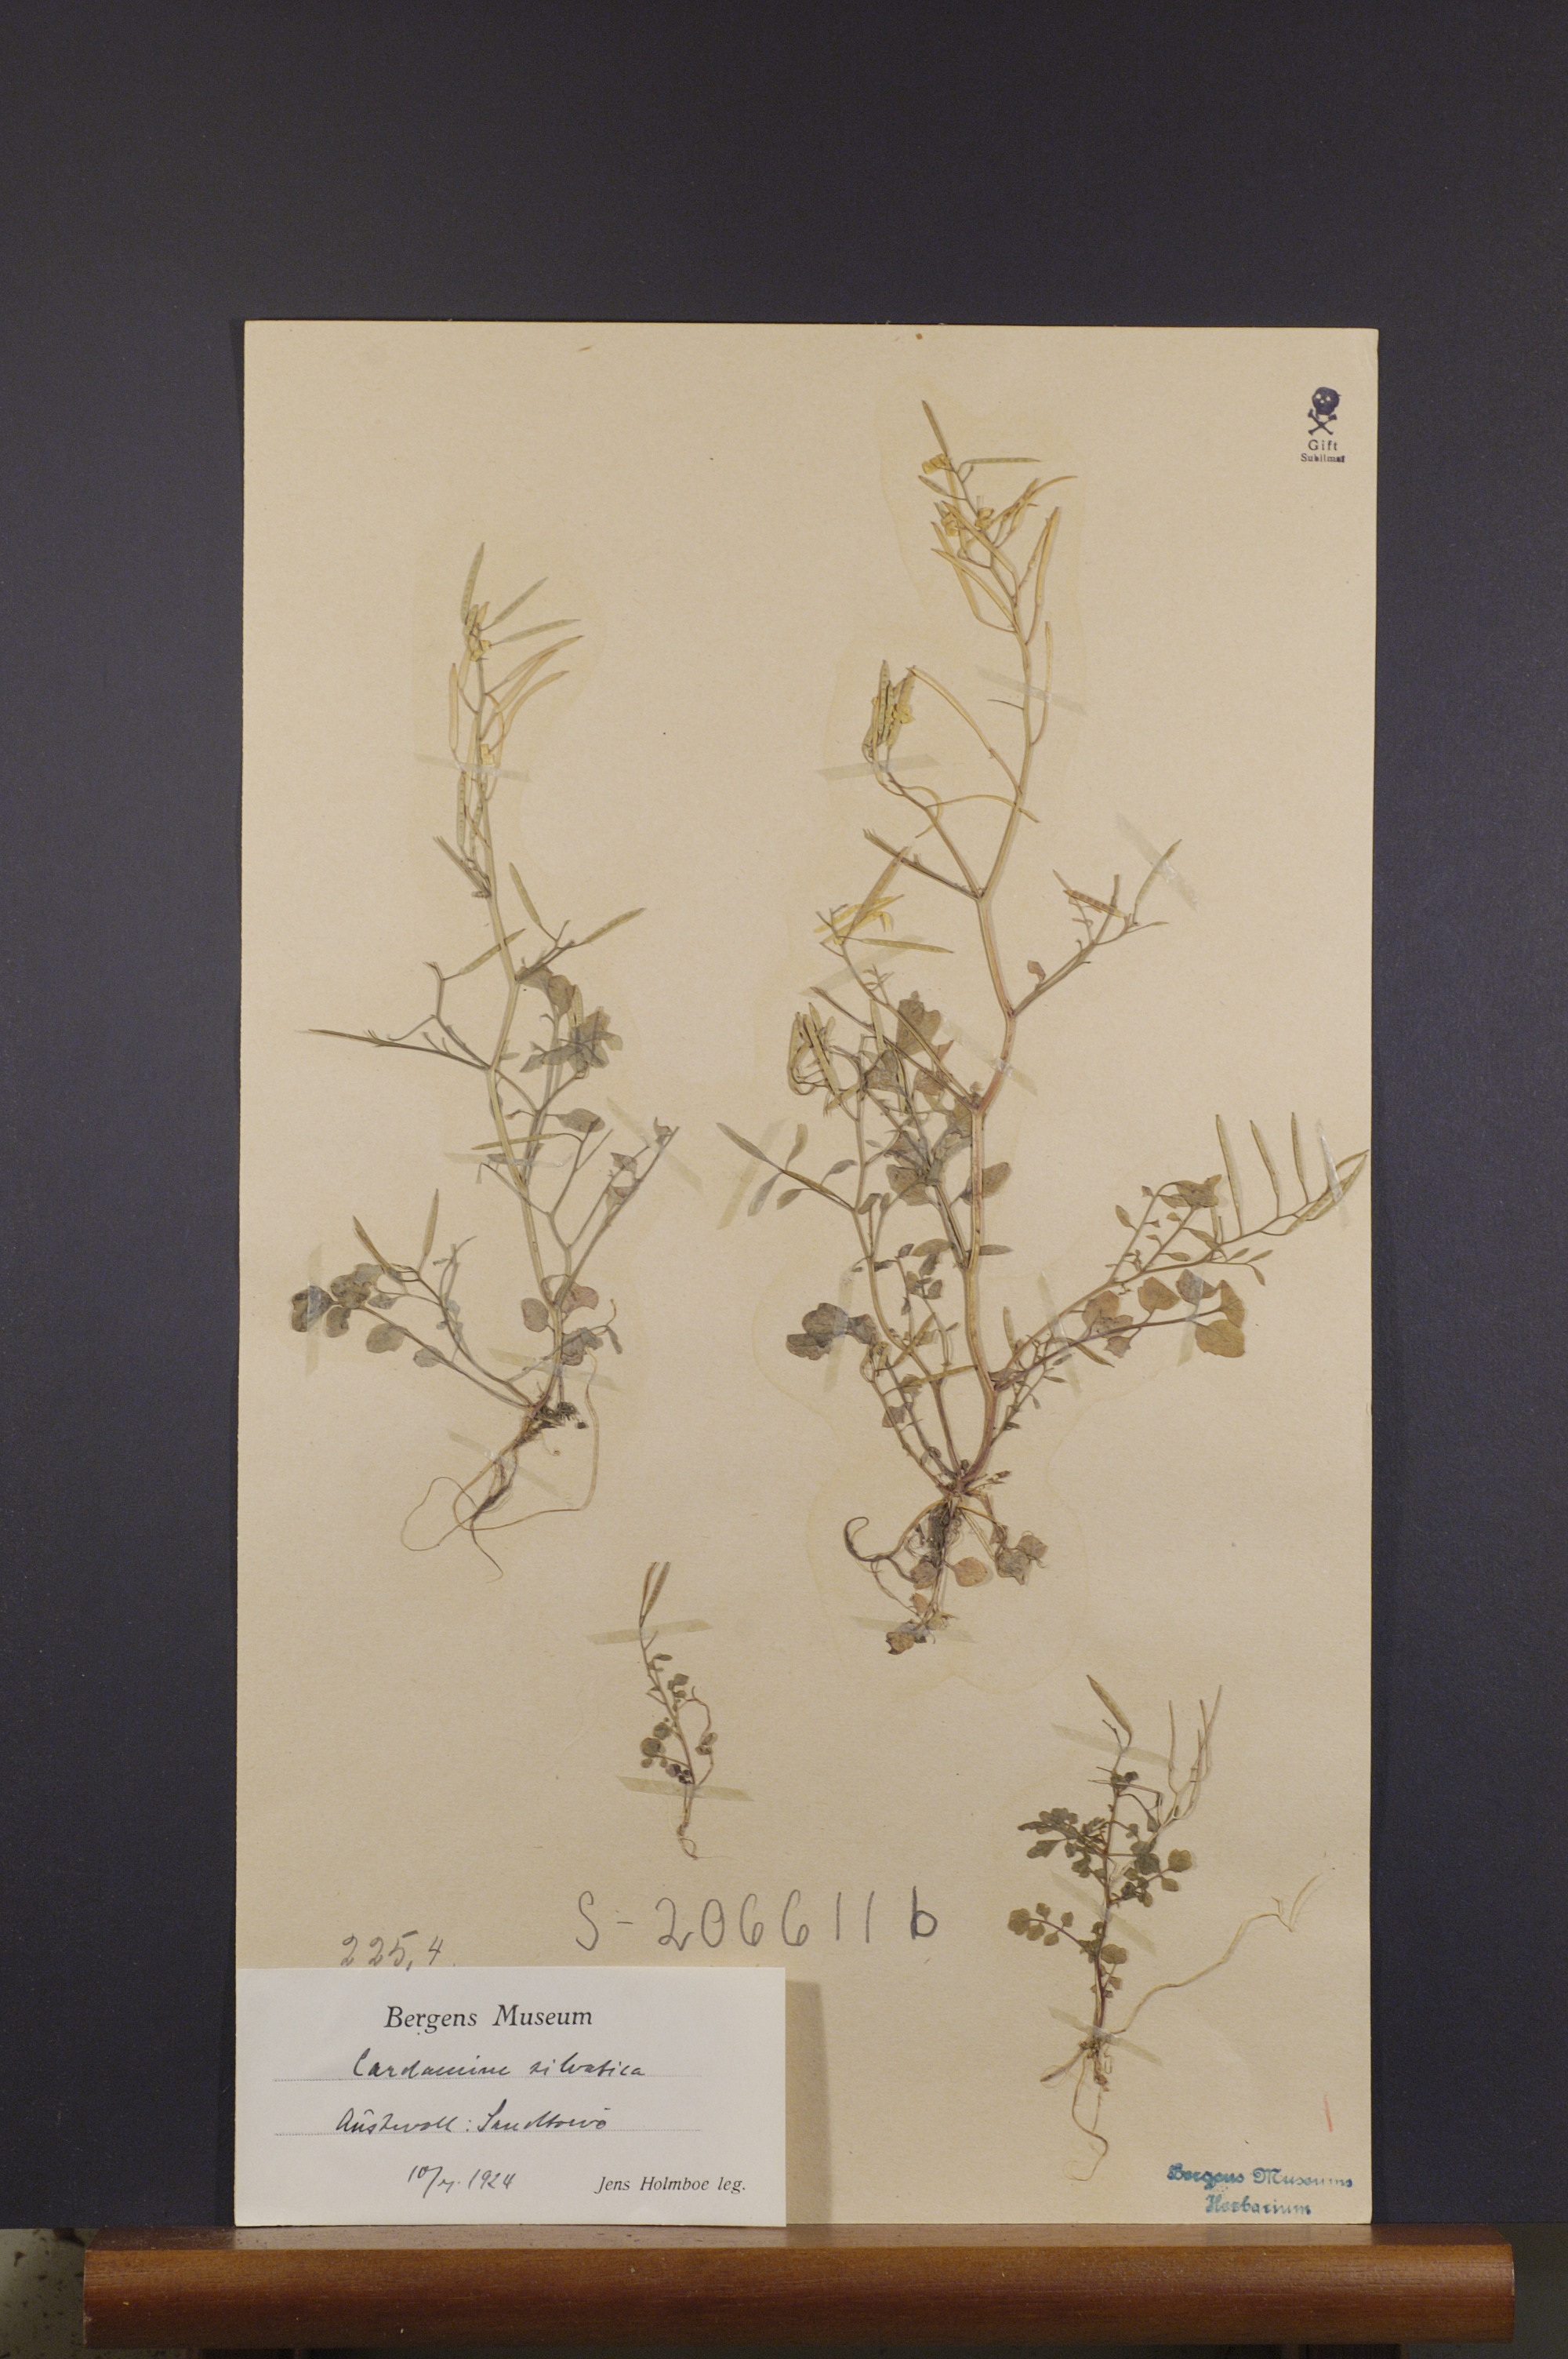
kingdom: Plantae
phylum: Tracheophyta
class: Magnoliopsida
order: Brassicales
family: Brassicaceae
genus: Cardamine
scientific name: Cardamine flexuosa
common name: Woodland bittercress
